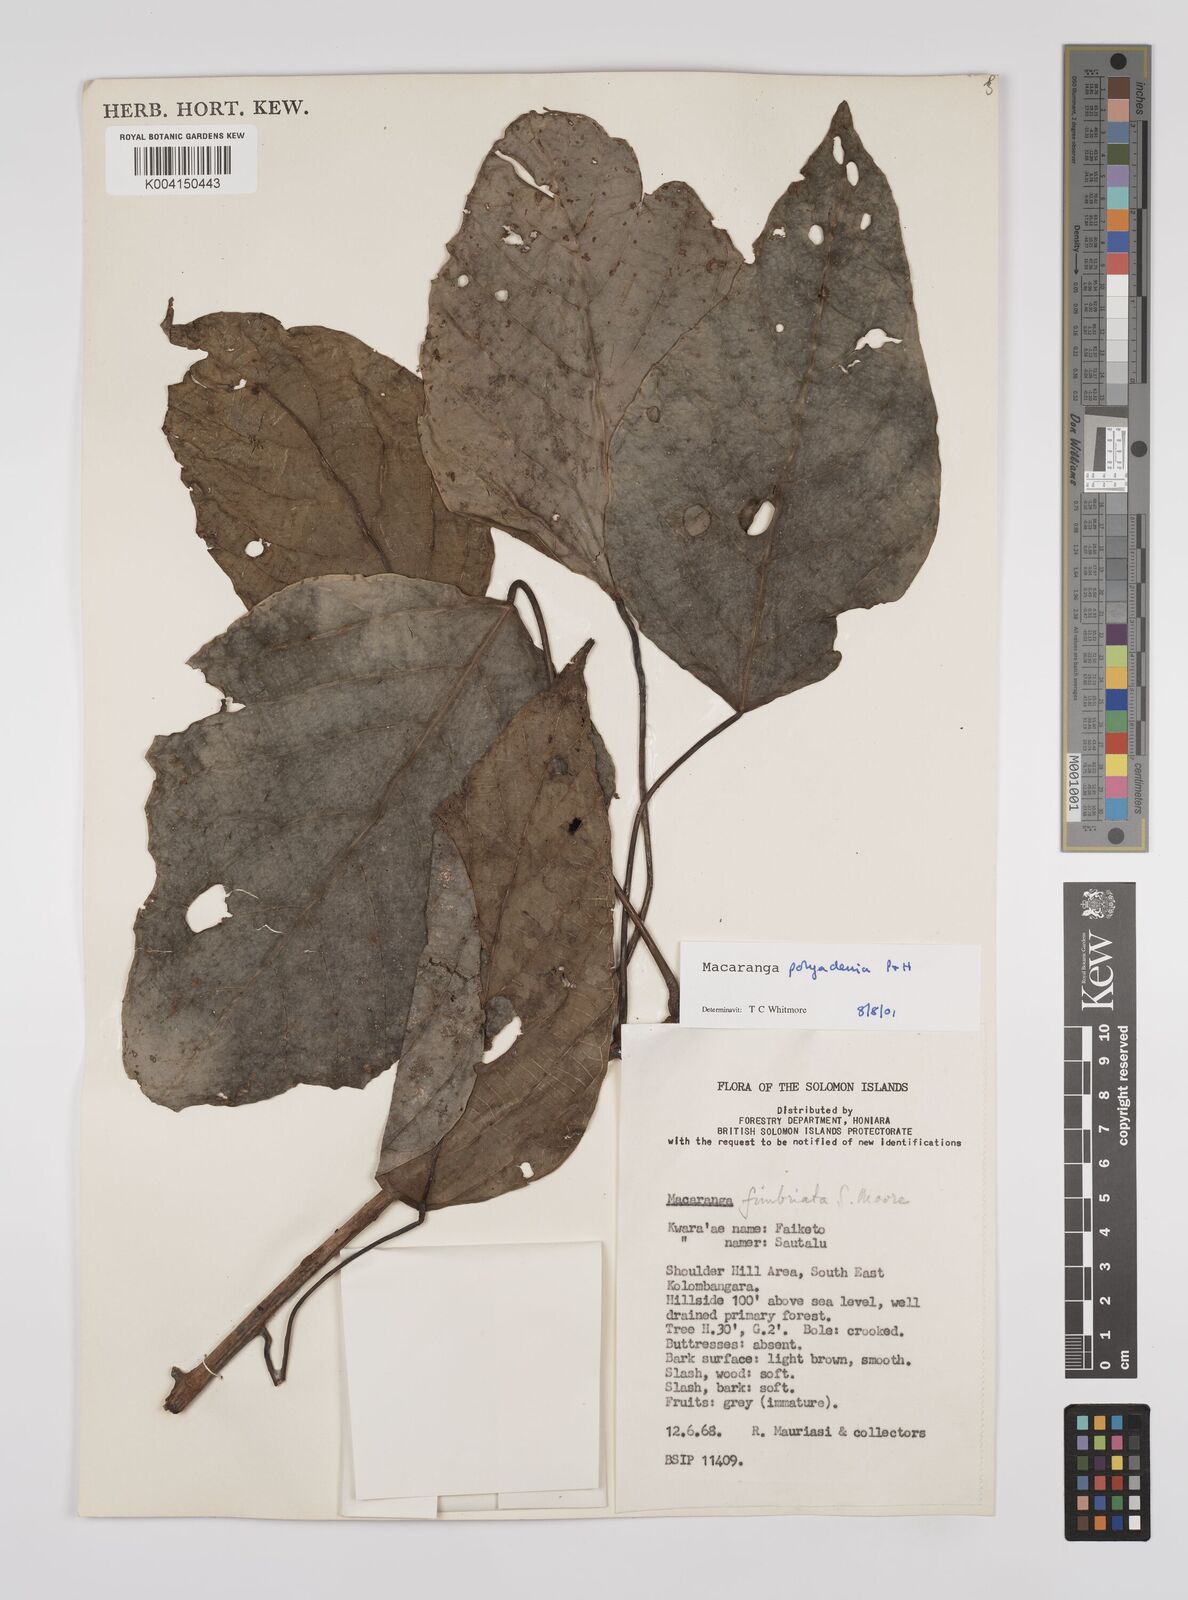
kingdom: Plantae
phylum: Tracheophyta
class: Magnoliopsida
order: Malpighiales
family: Euphorbiaceae
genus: Macaranga
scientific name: Macaranga polyadenia
